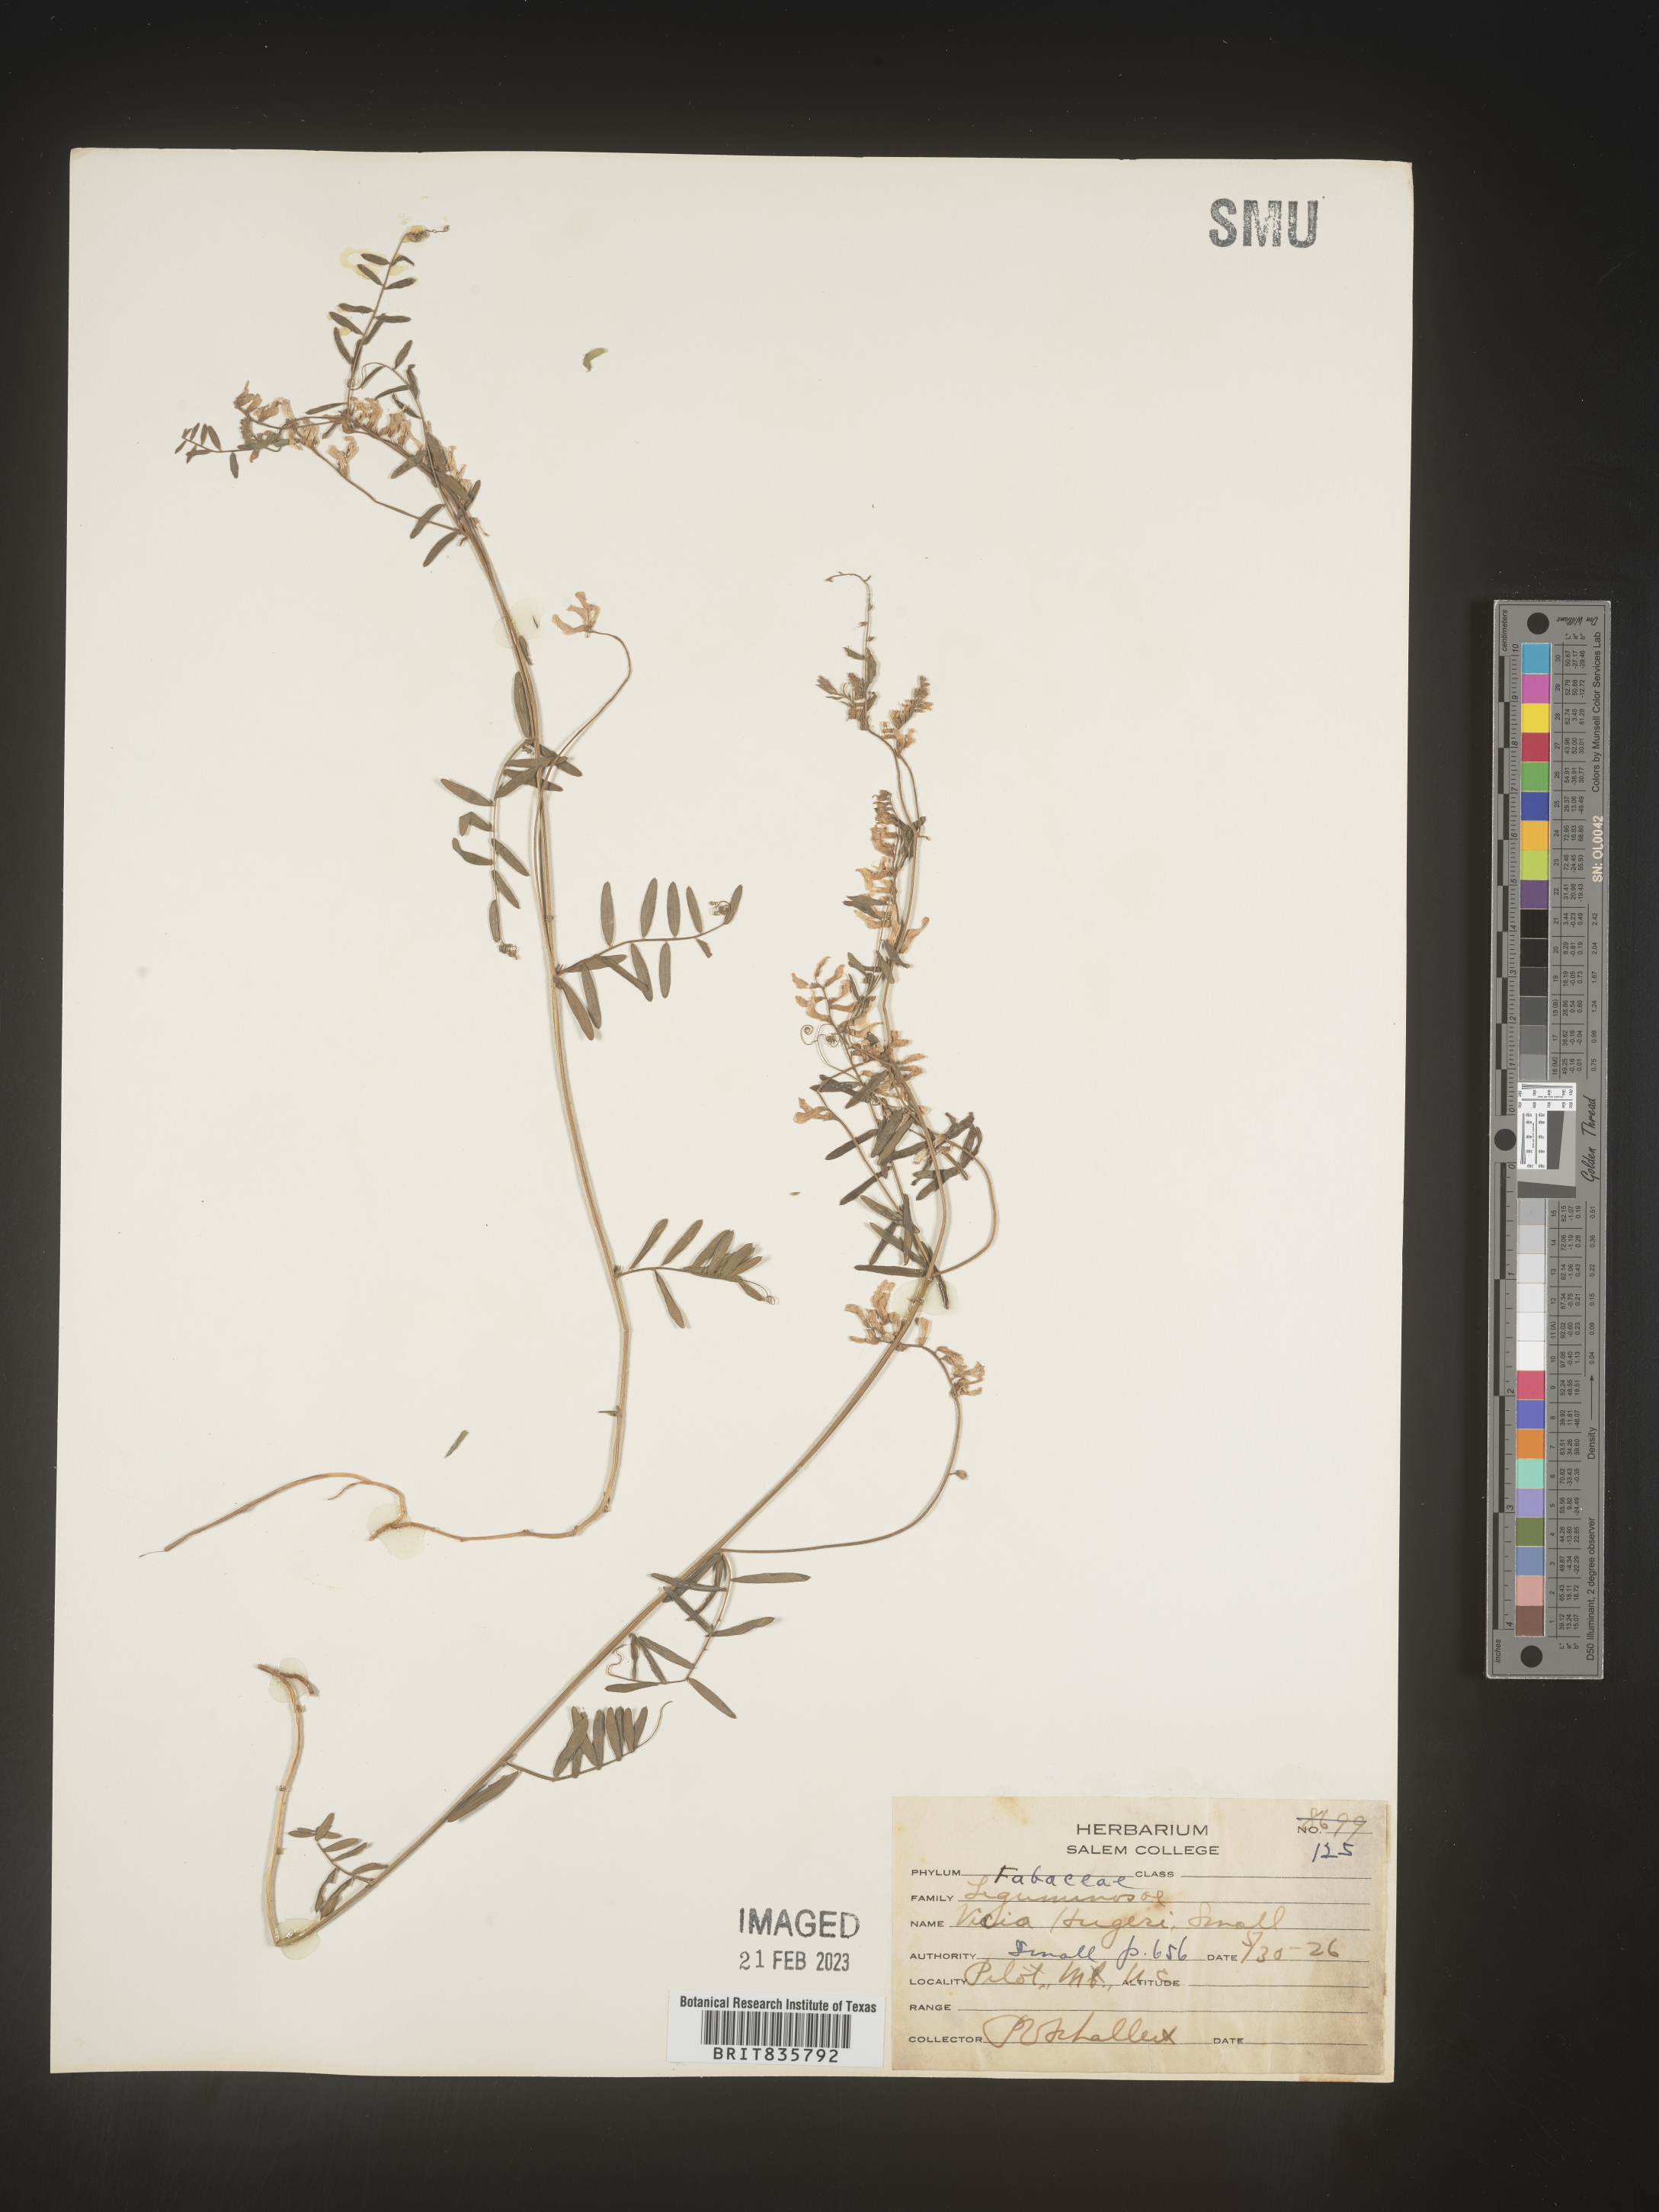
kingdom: Plantae
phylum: Tracheophyta
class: Magnoliopsida
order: Fabales
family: Fabaceae
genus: Vicia
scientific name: Vicia
